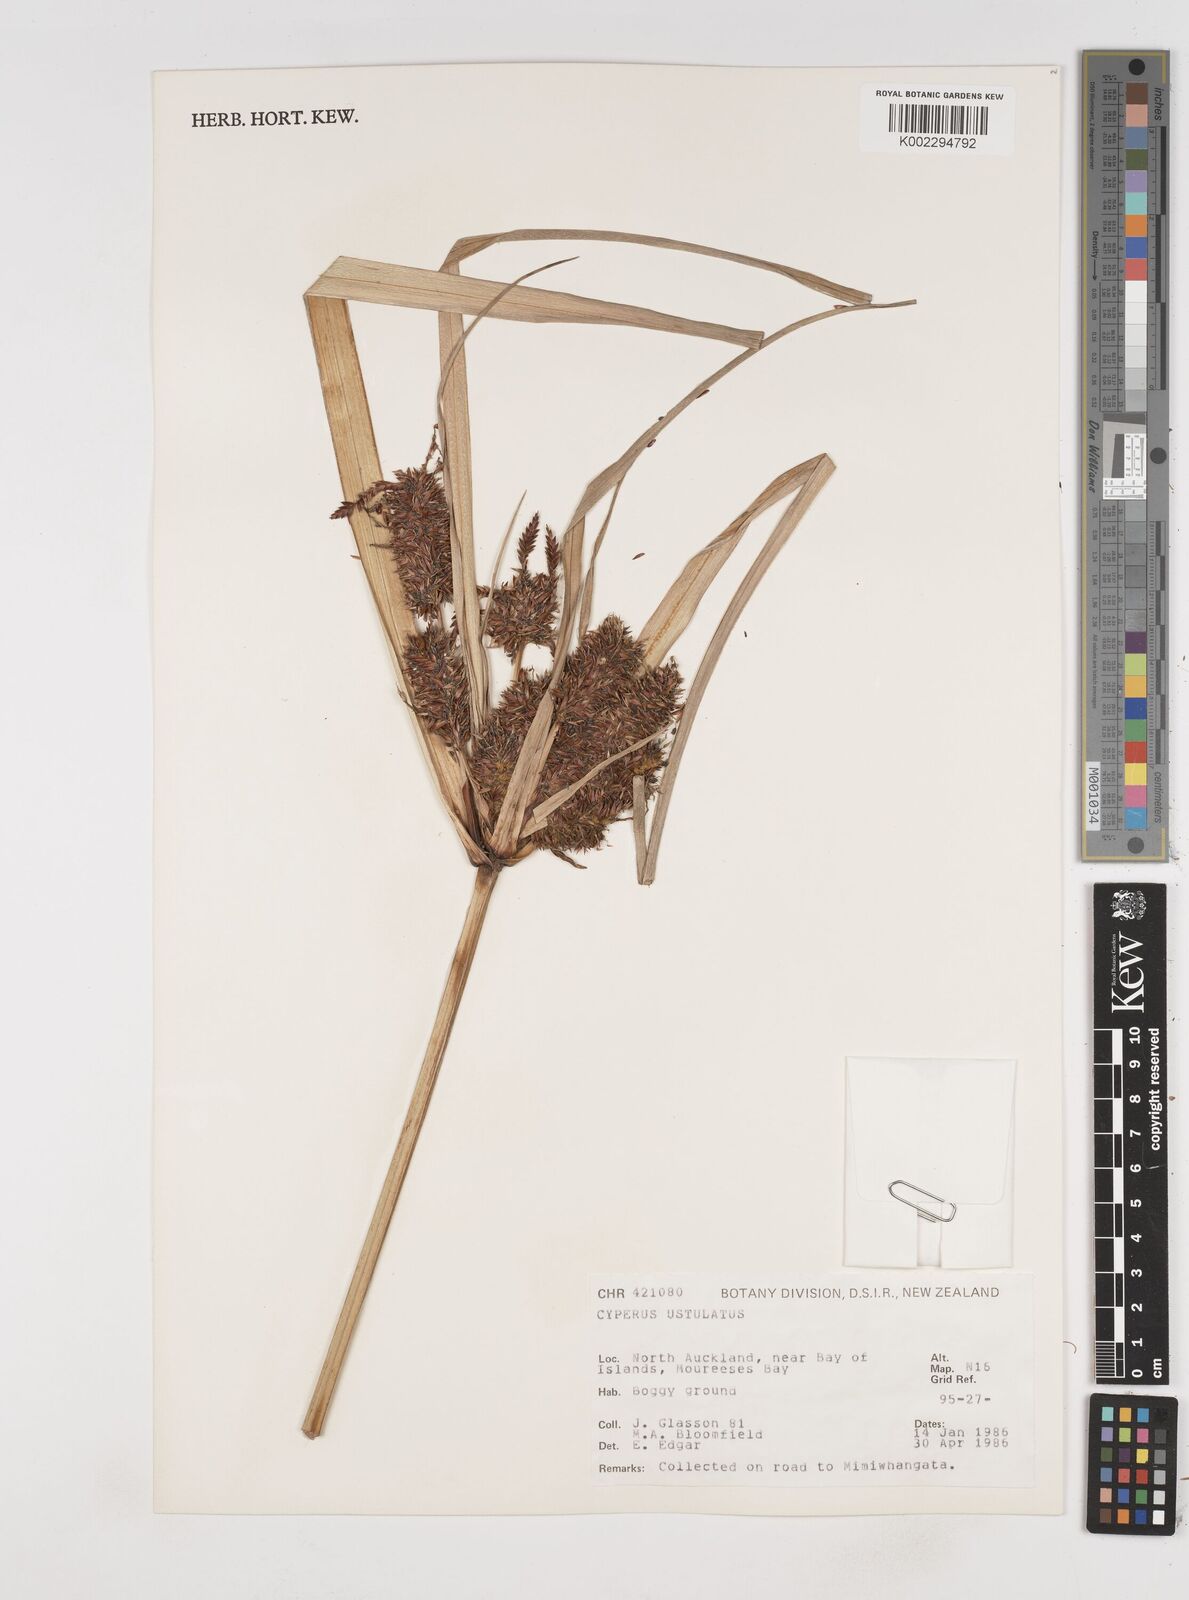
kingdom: Plantae
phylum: Tracheophyta
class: Liliopsida
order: Poales
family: Cyperaceae
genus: Cyperus
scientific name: Cyperus ustulatus
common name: Giant umbrella-sedge
